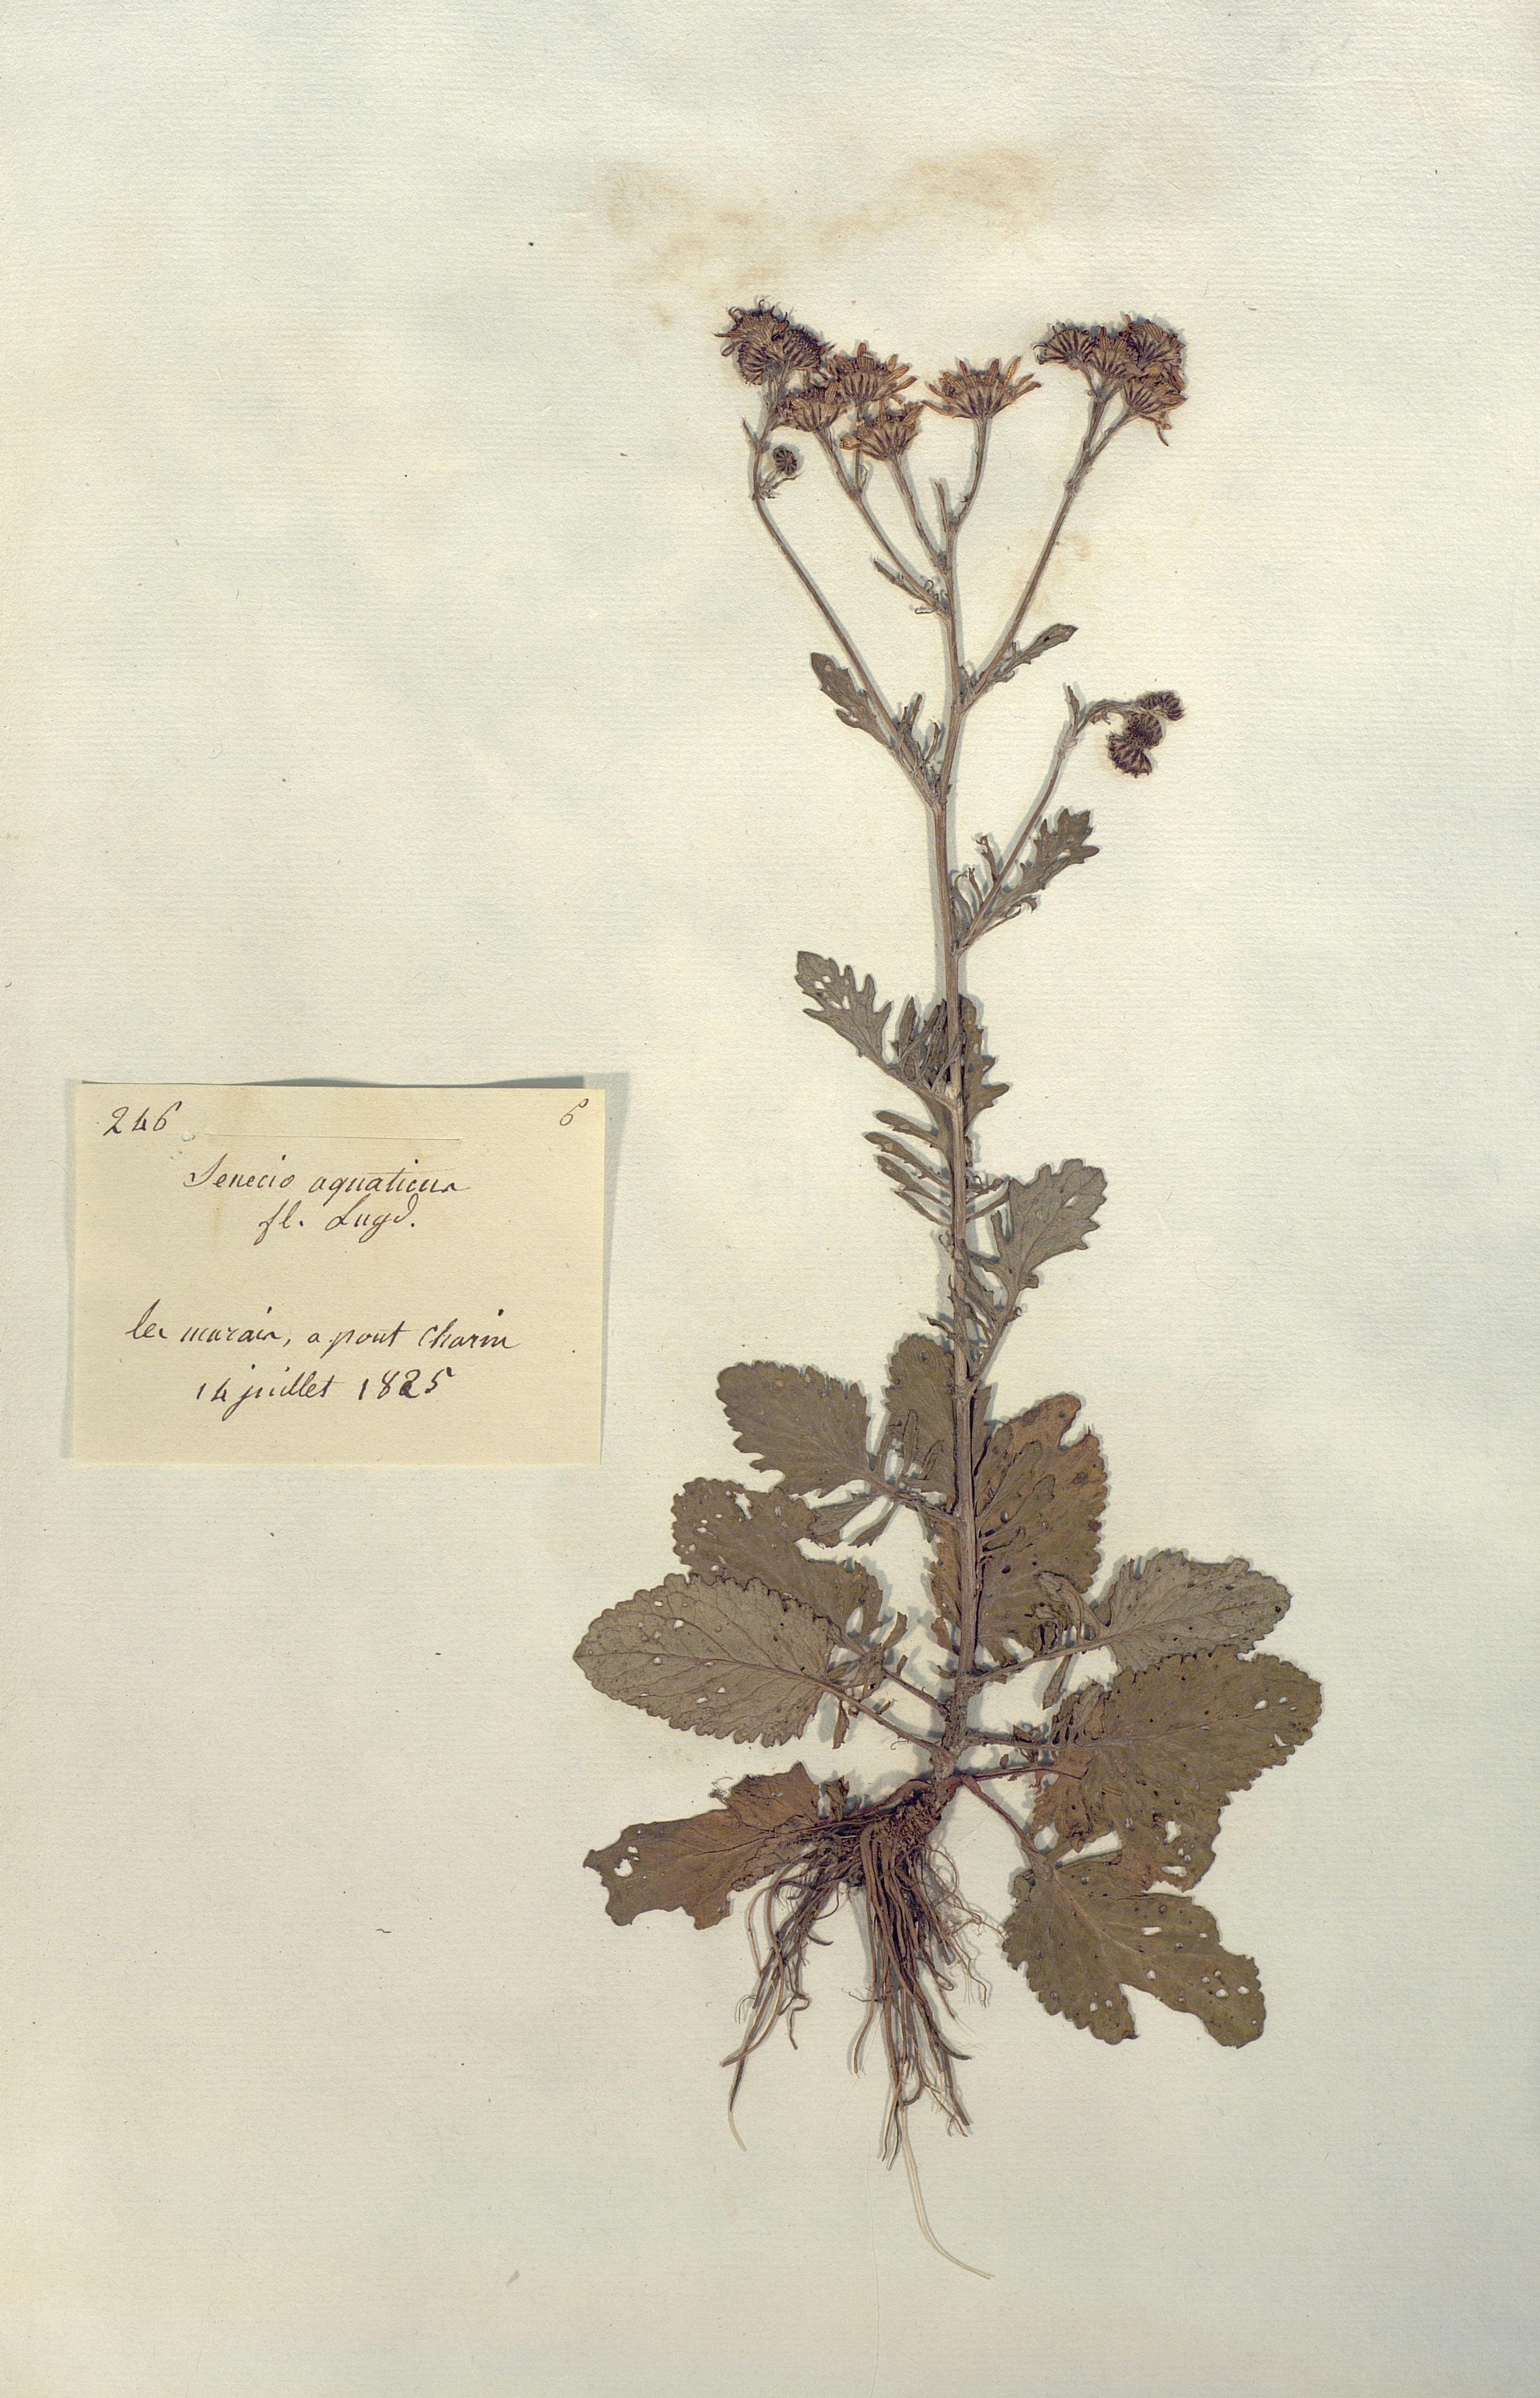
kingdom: Plantae
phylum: Tracheophyta
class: Magnoliopsida
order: Asterales
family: Asteraceae
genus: Senecio
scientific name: Senecio aquaticus
